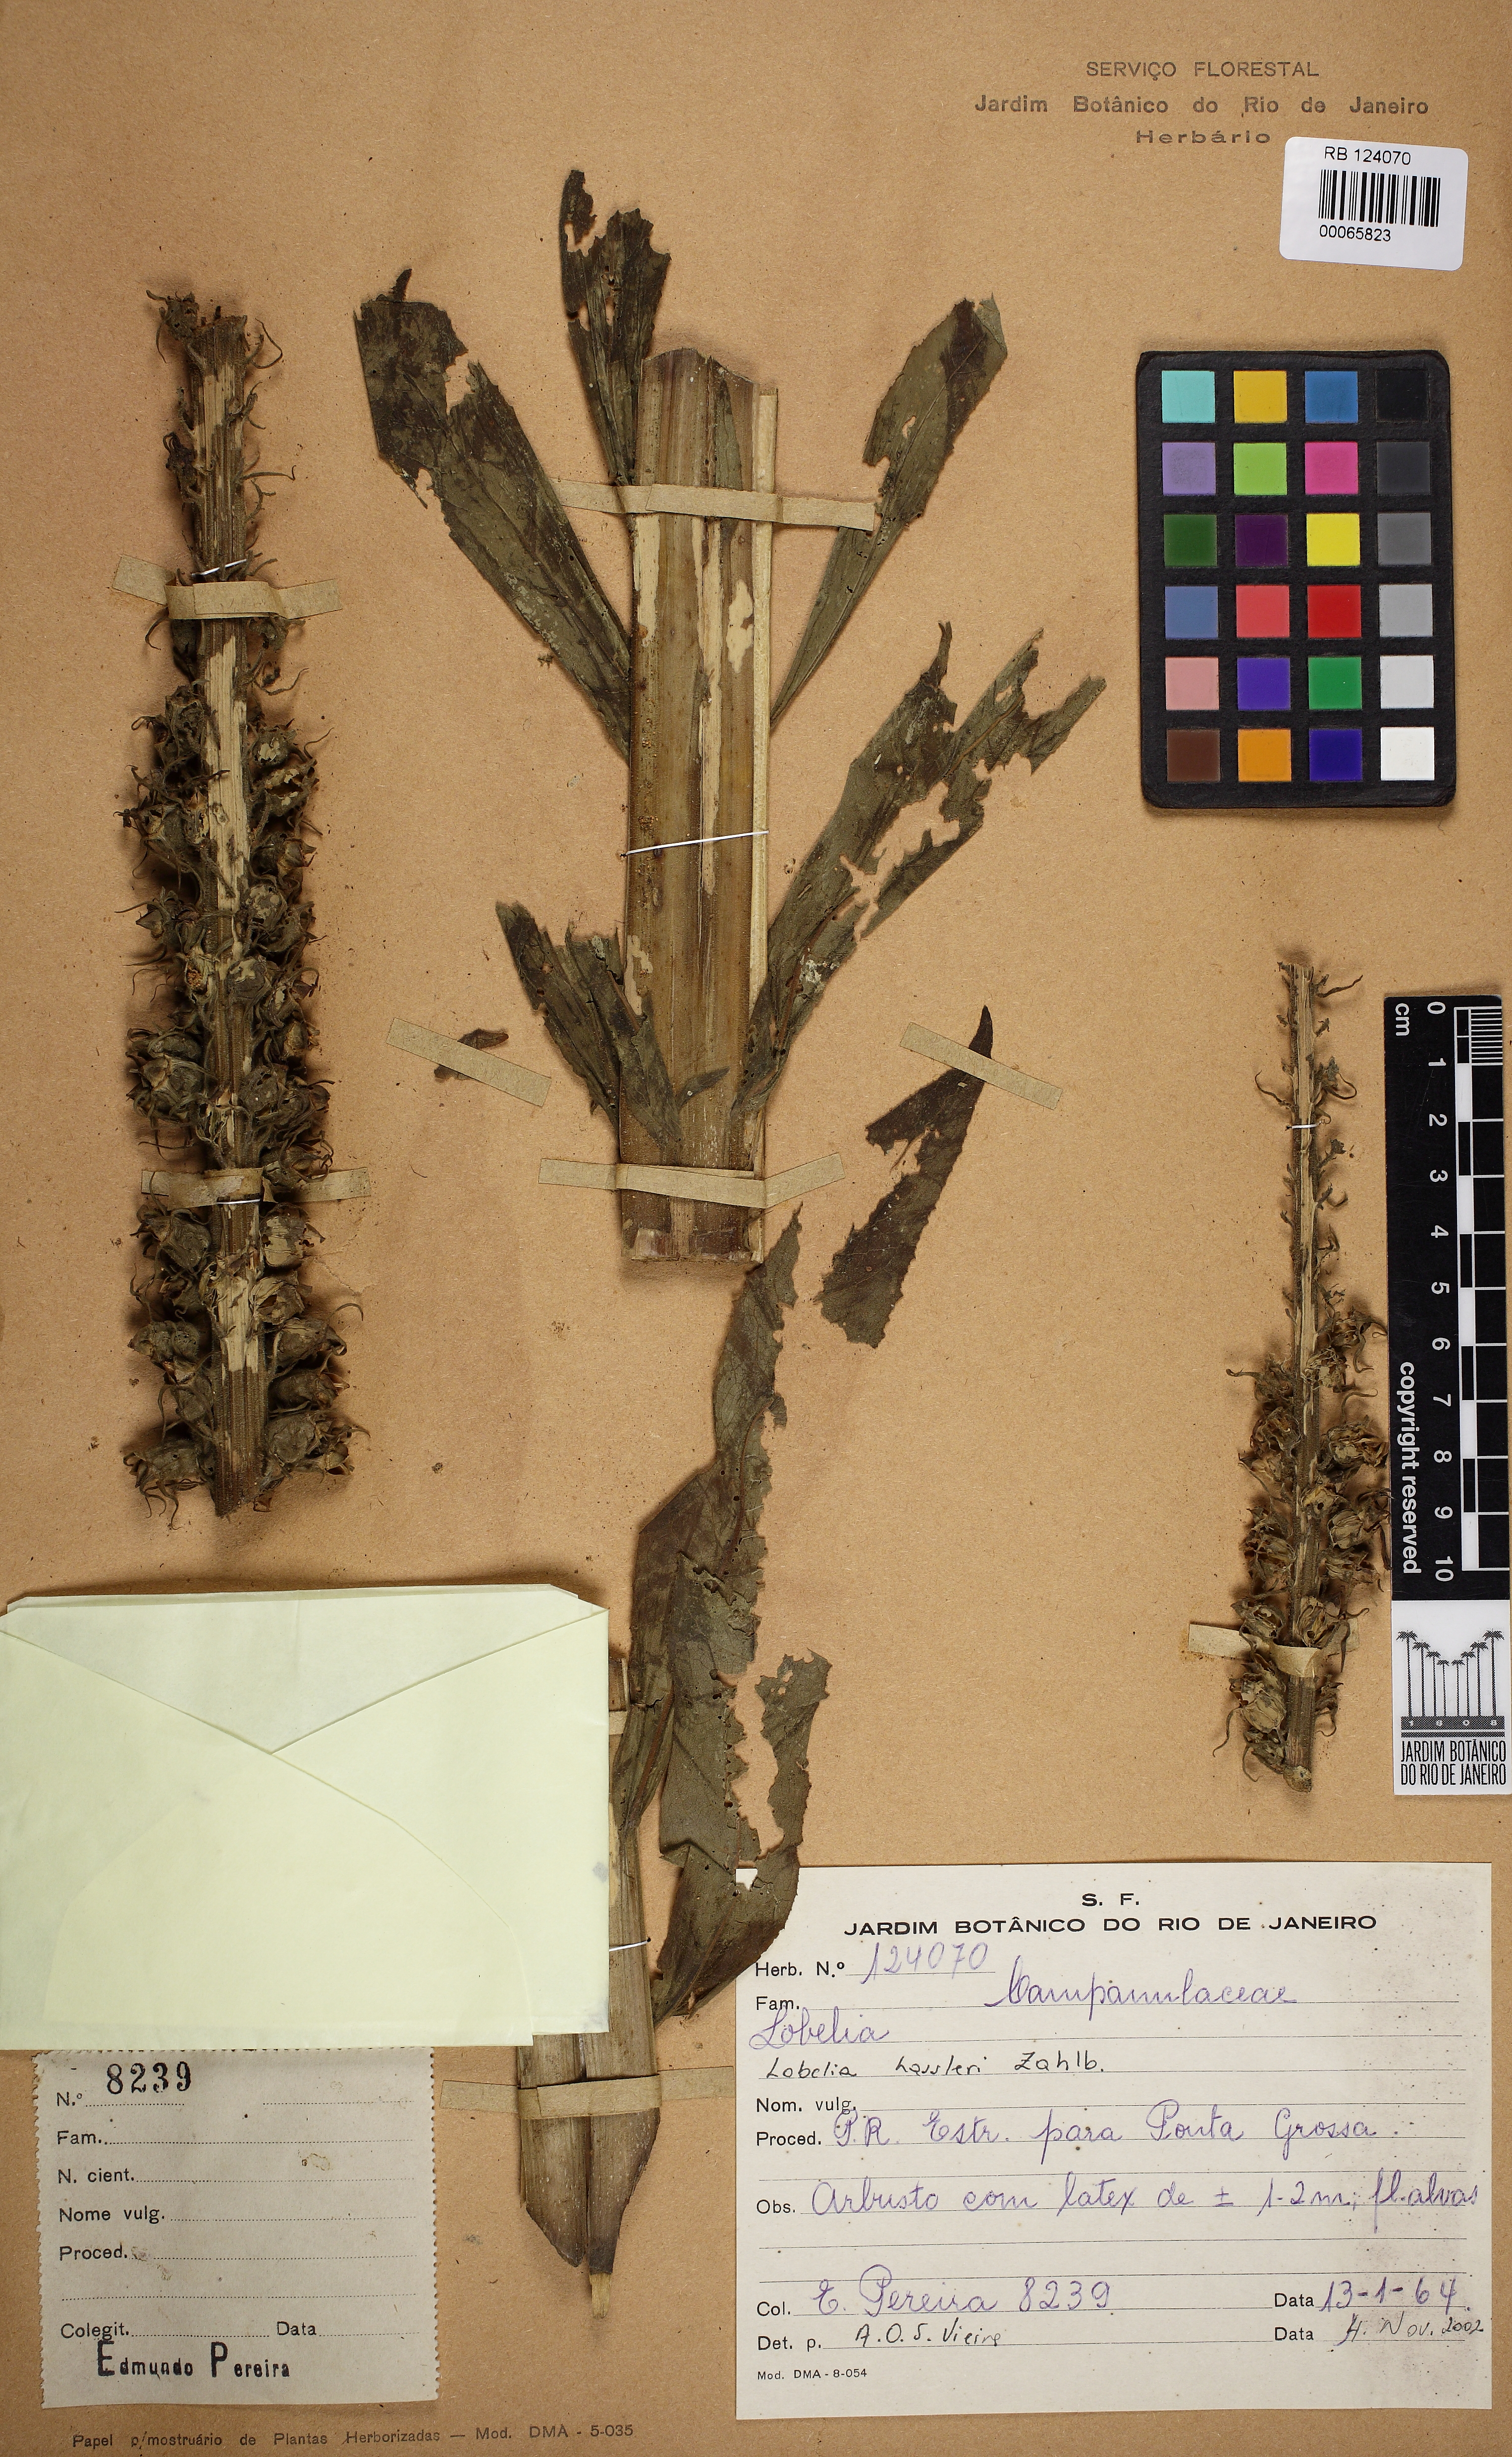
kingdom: Plantae
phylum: Tracheophyta
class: Magnoliopsida
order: Asterales
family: Campanulaceae
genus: Lobelia
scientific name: Lobelia hassleri
